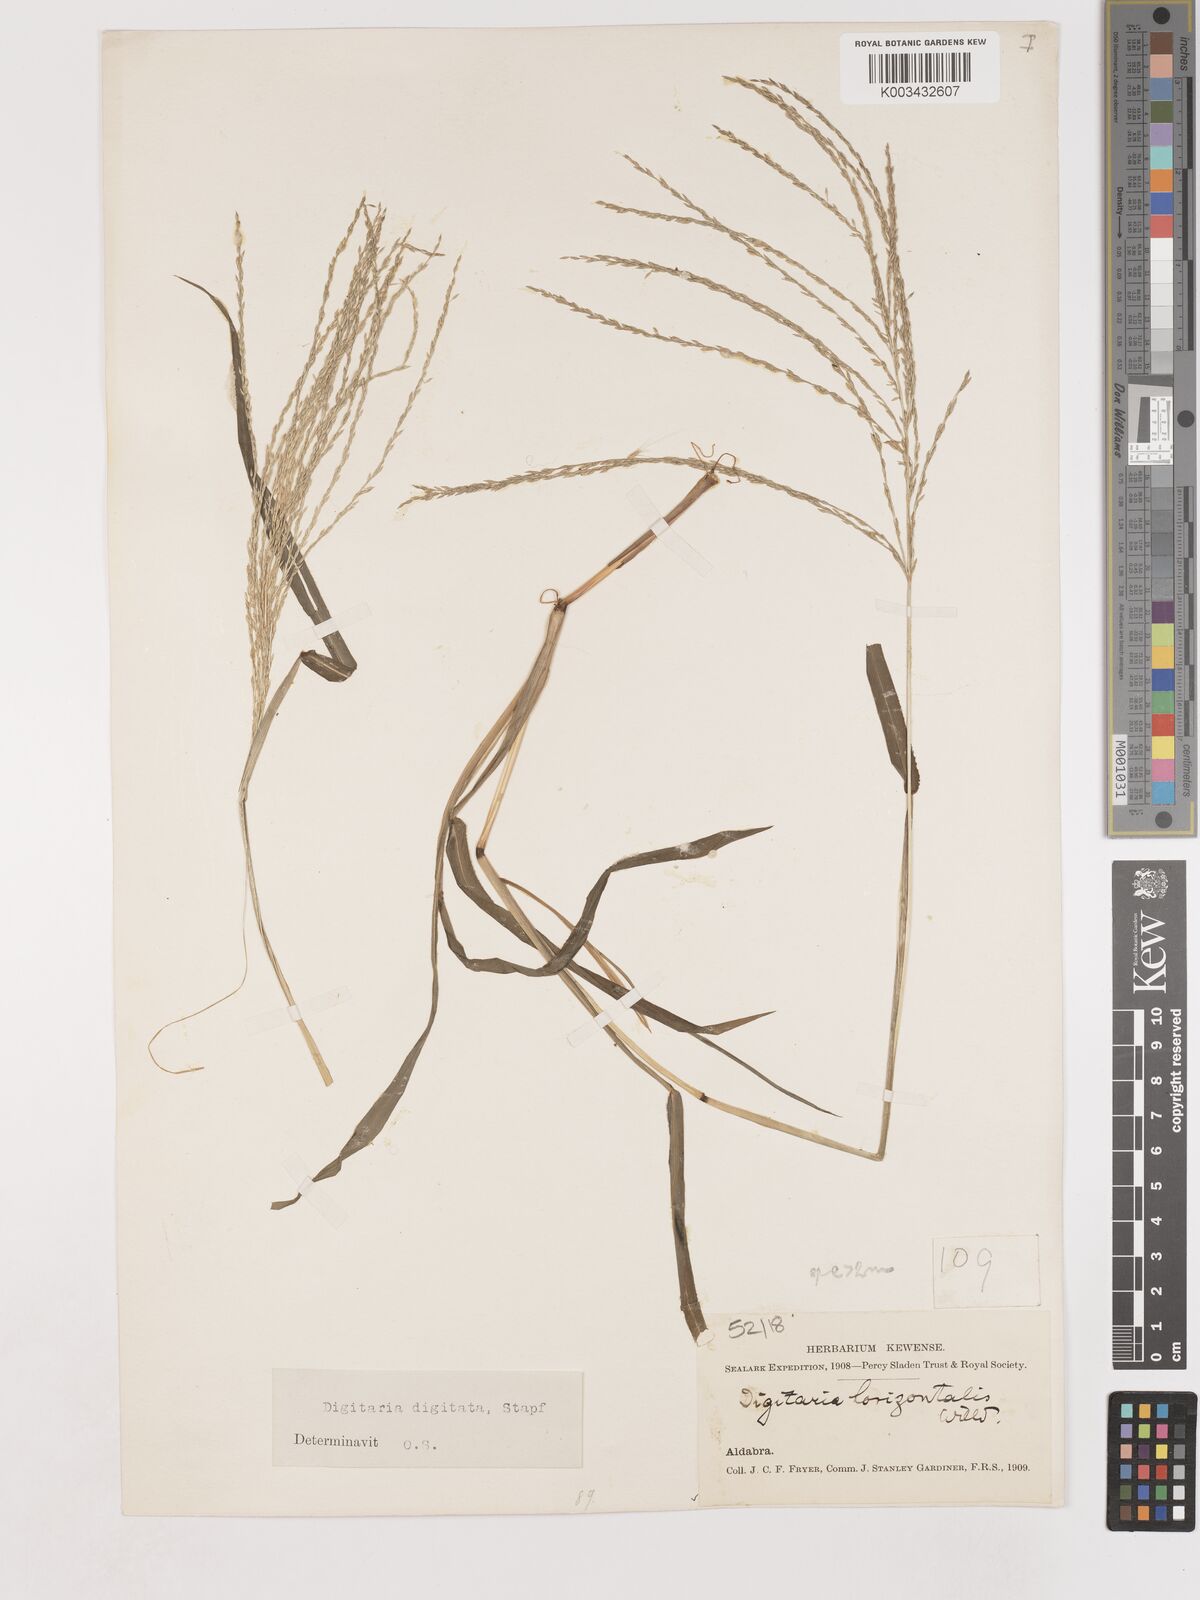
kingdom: Plantae
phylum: Tracheophyta
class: Liliopsida
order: Poales
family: Poaceae
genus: Digitaria
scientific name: Digitaria horizontalis
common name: Jamaican crabgrass
